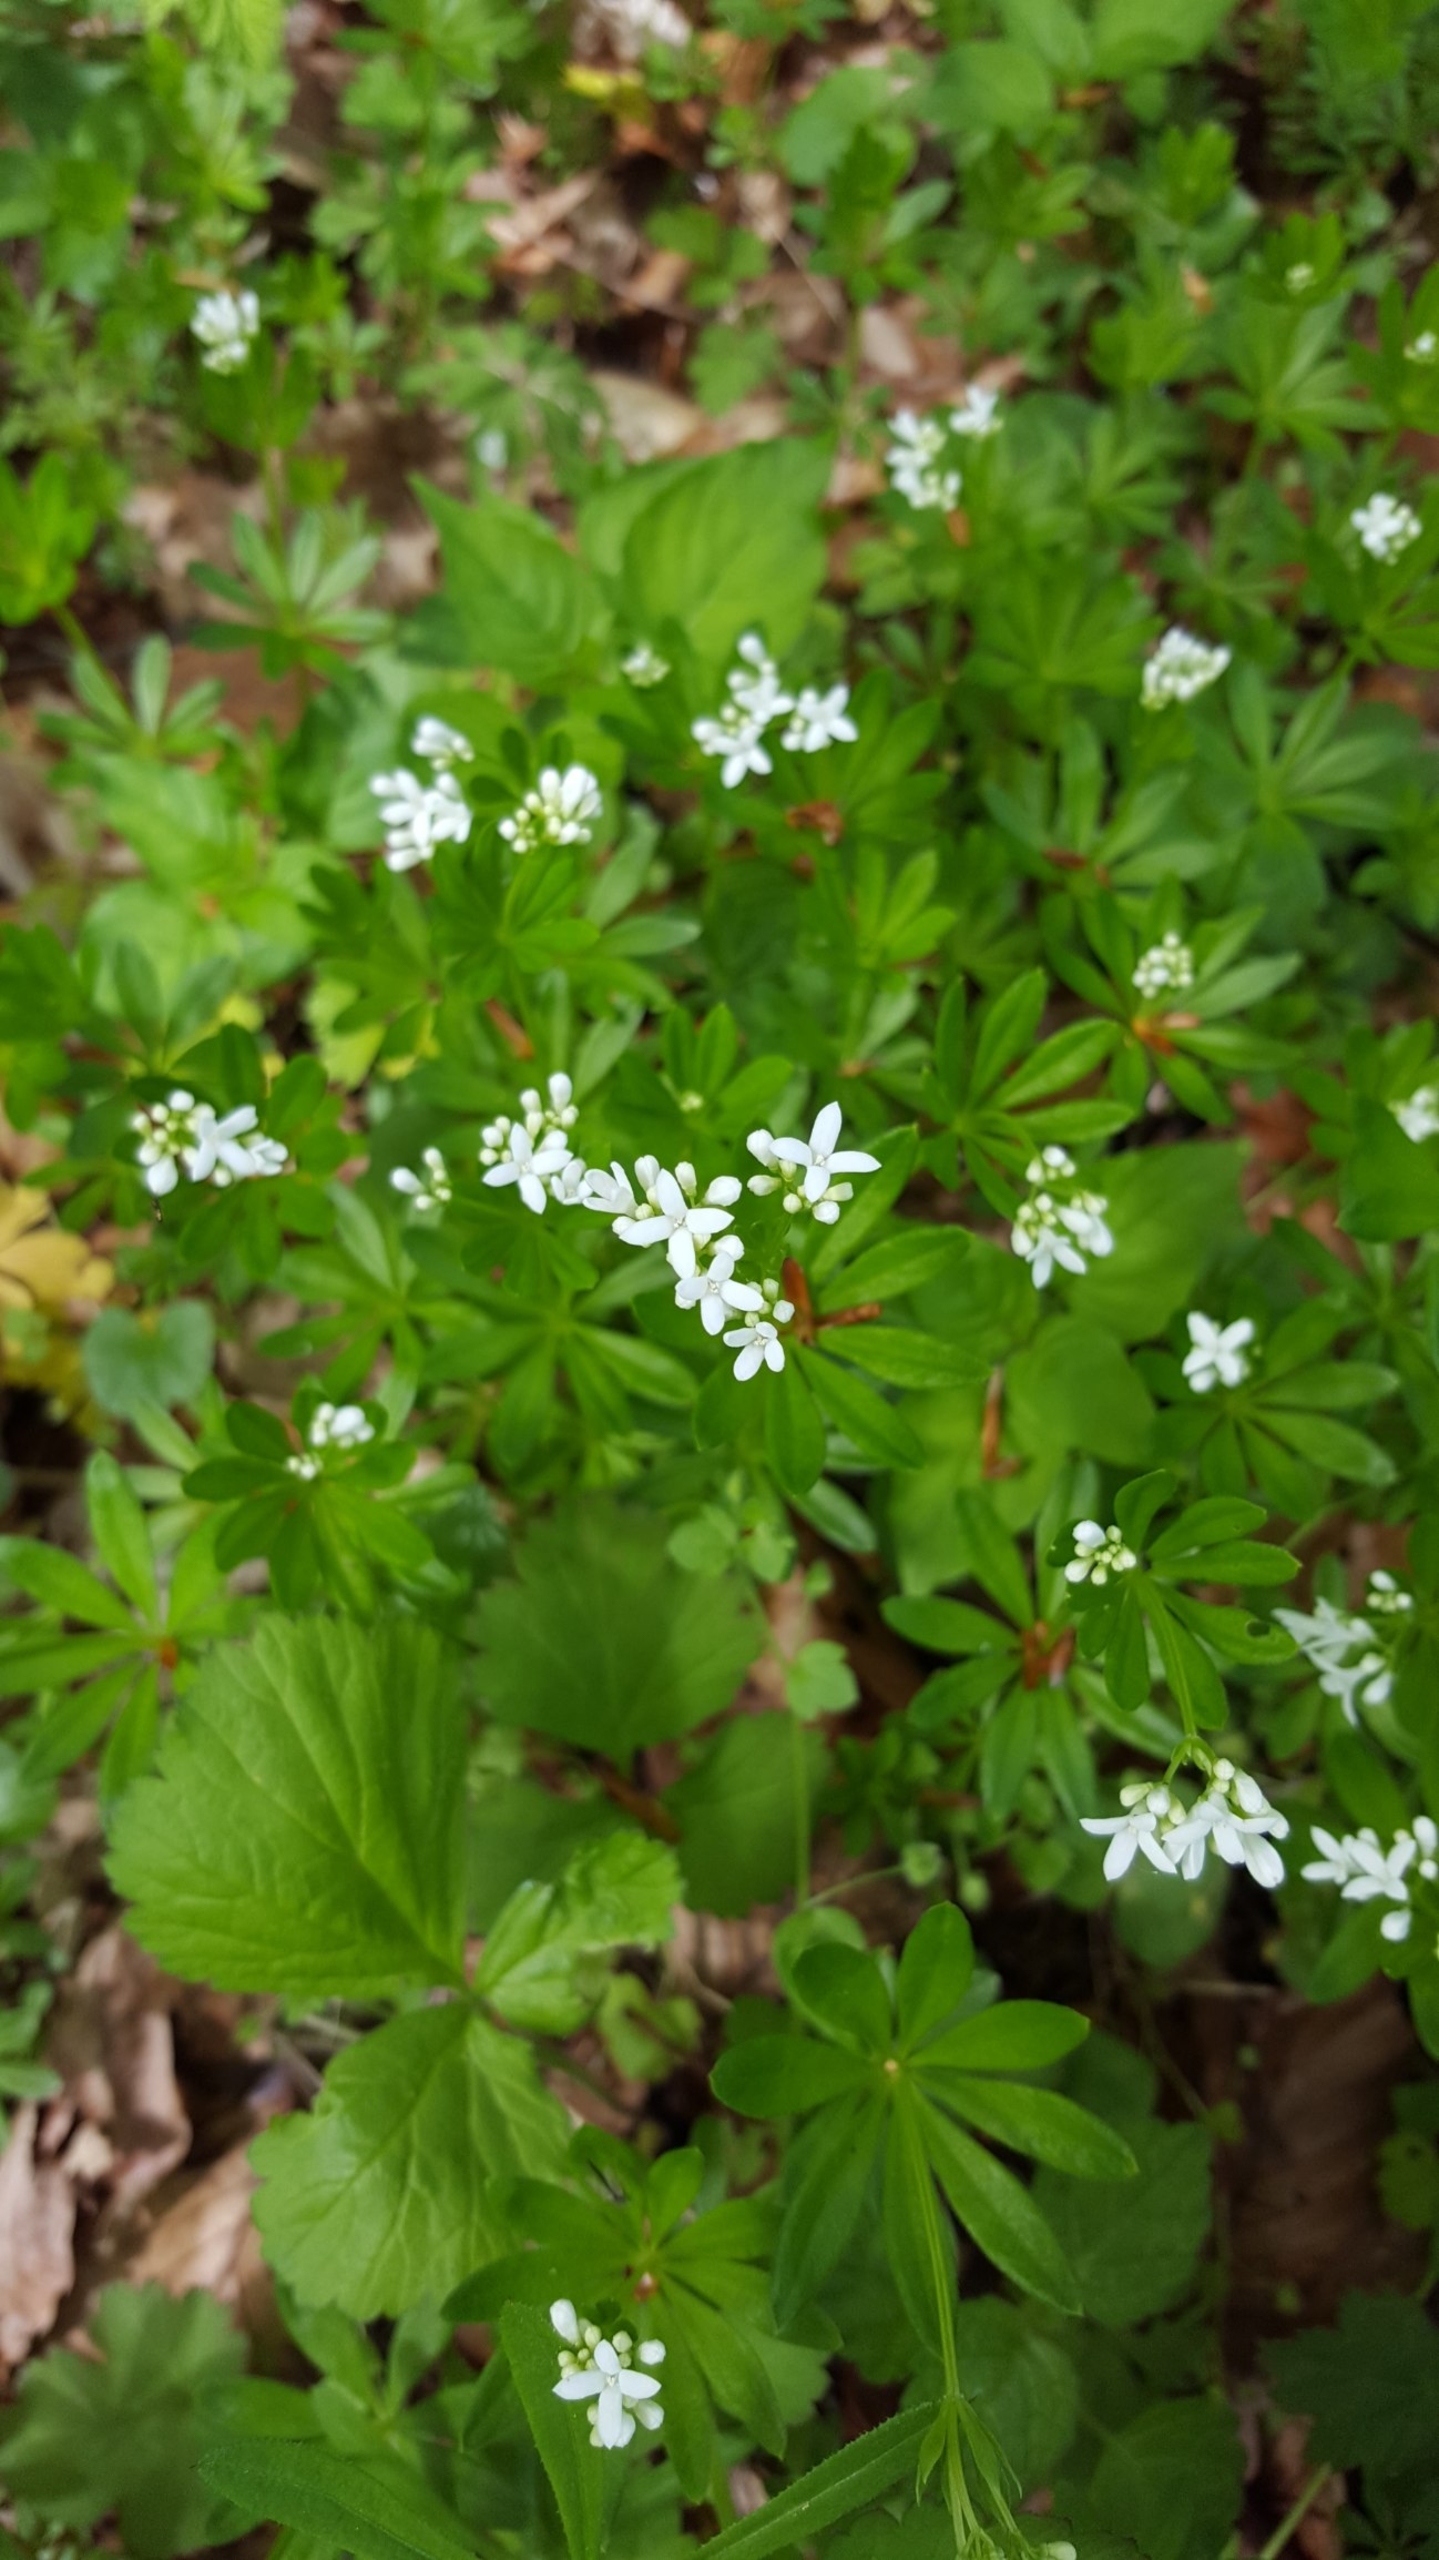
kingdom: Plantae
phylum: Tracheophyta
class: Magnoliopsida
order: Gentianales
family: Rubiaceae
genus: Galium
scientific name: Galium odoratum
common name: Skovmærke
